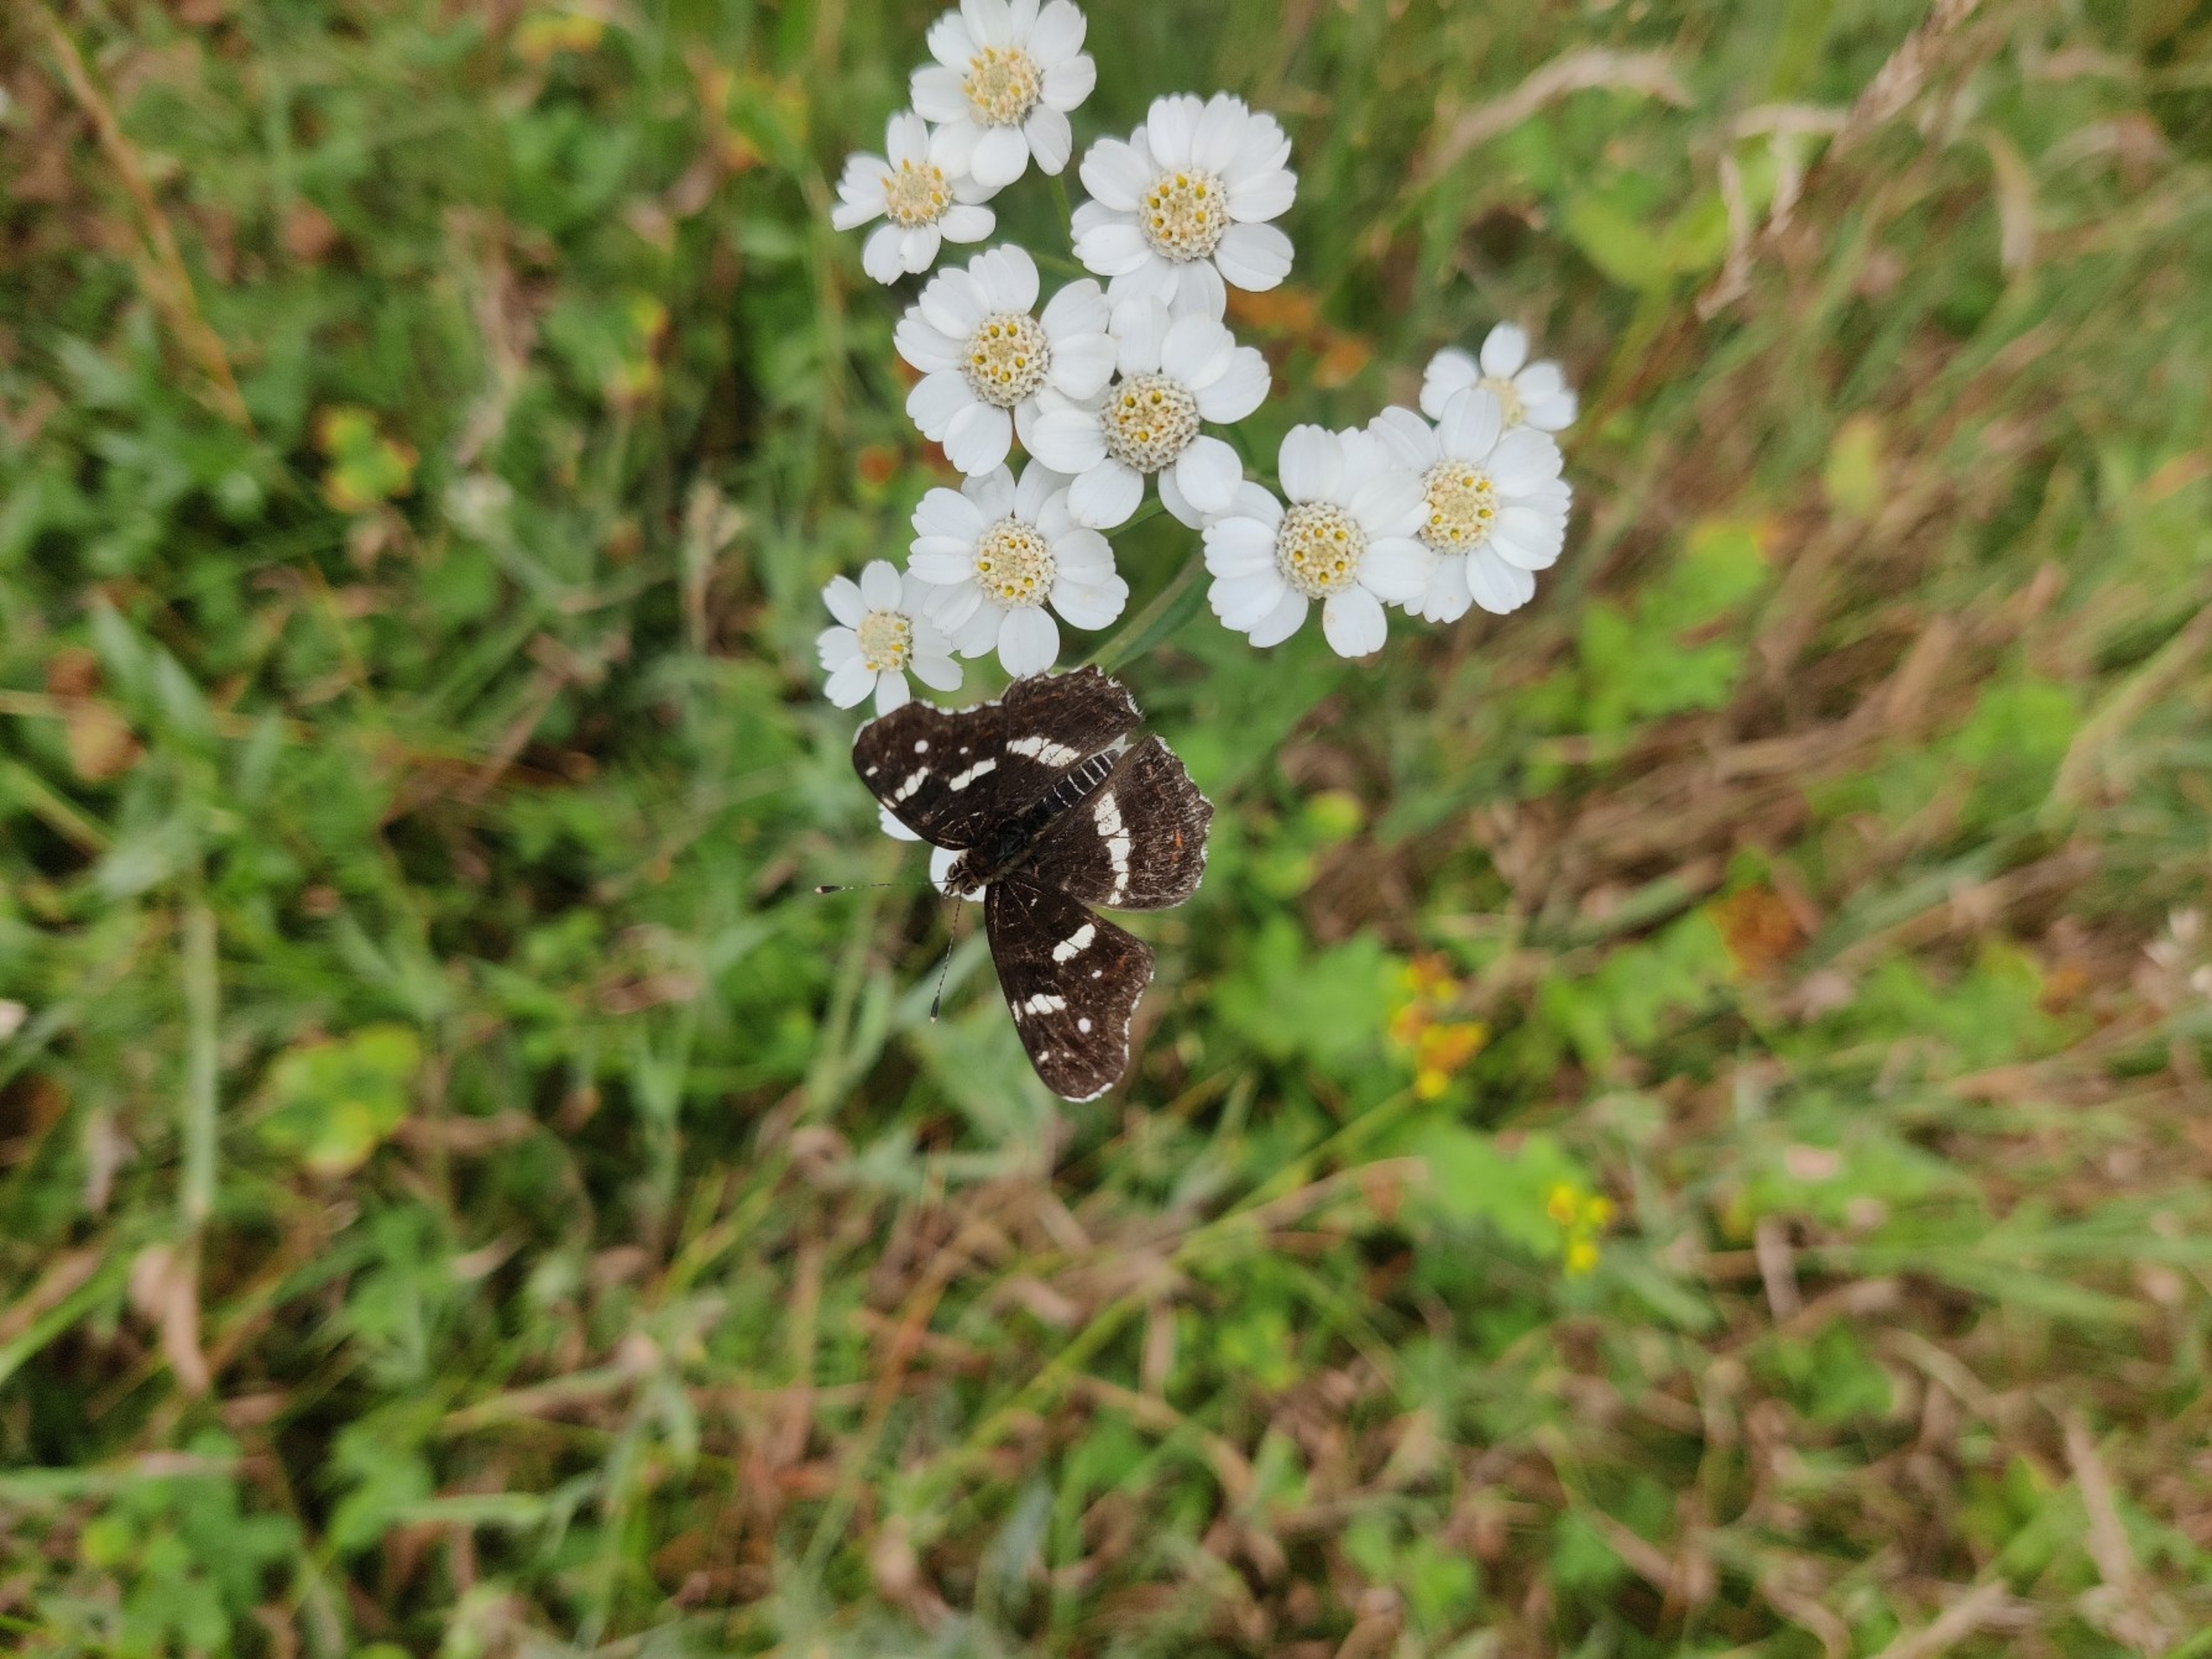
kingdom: Animalia
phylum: Arthropoda
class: Insecta
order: Lepidoptera
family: Nymphalidae
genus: Araschnia
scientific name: Araschnia levana
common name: Nældesommerfugl
